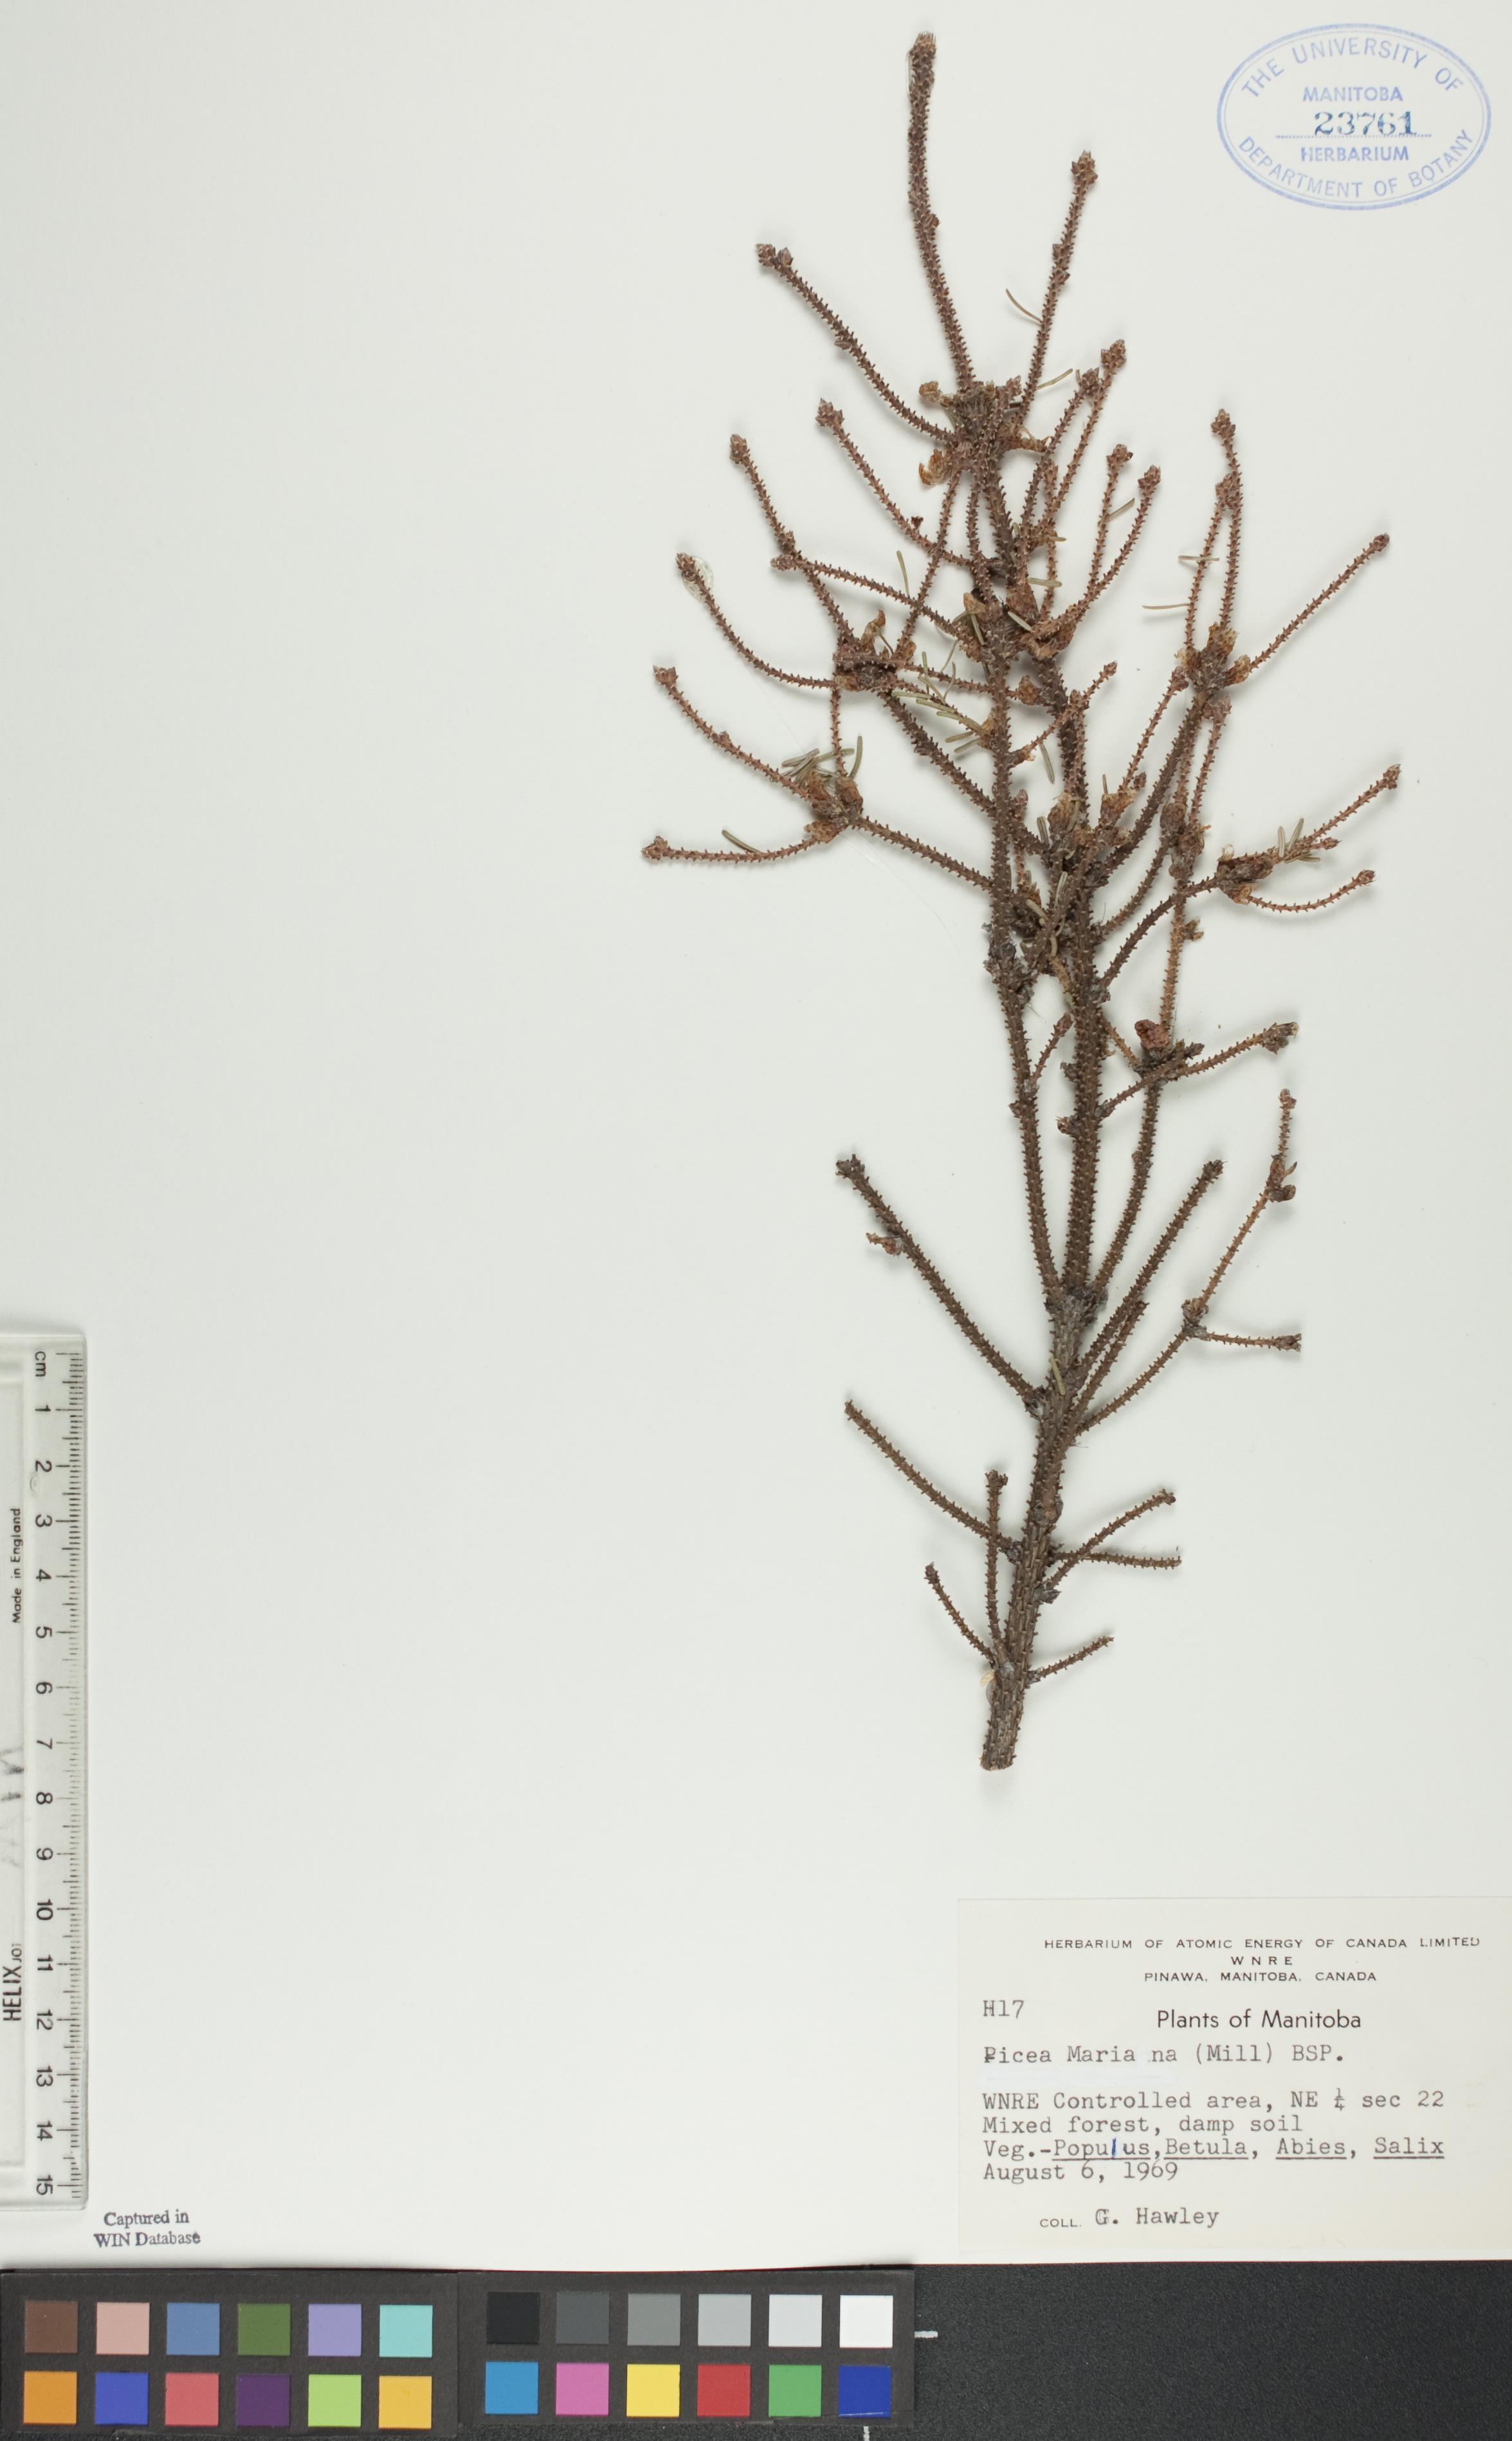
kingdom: Plantae
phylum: Tracheophyta
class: Pinopsida
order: Pinales
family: Pinaceae
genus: Picea
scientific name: Picea mariana
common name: Black spruce
